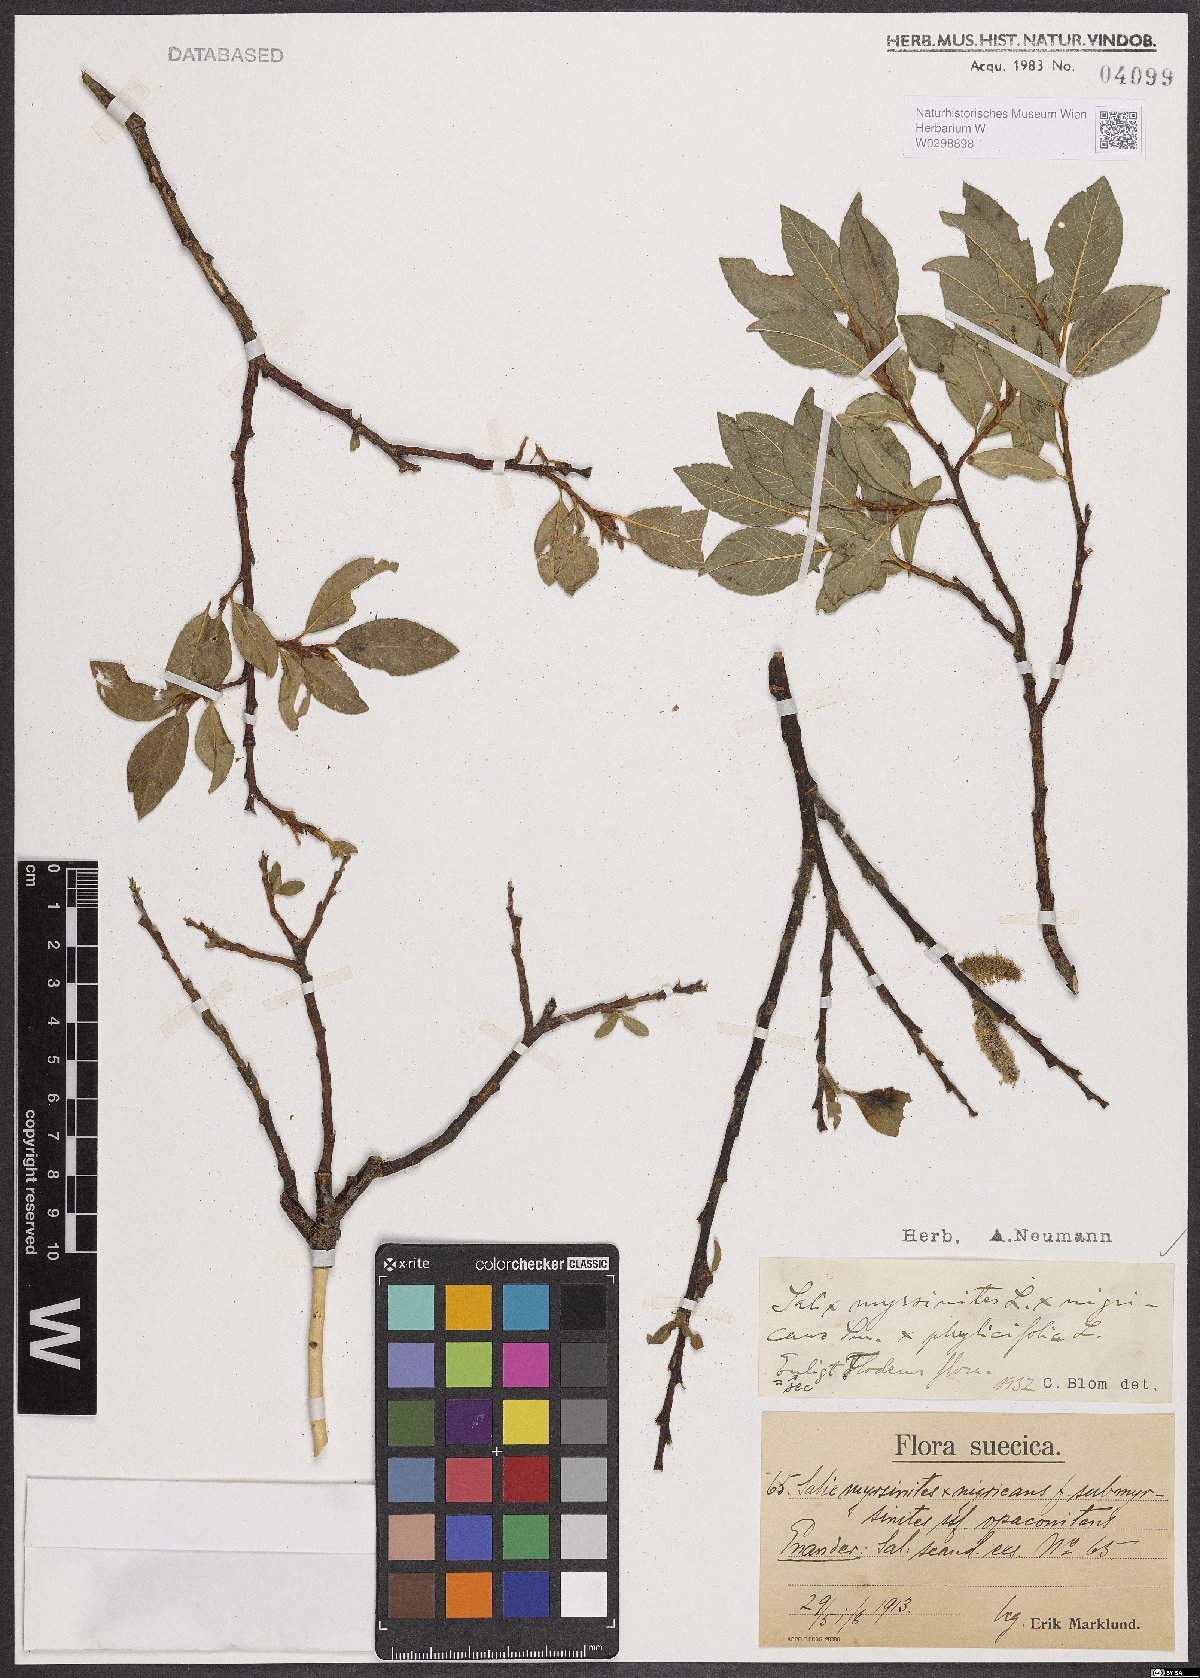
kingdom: Plantae
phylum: Tracheophyta
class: Magnoliopsida
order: Malpighiales
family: Salicaceae
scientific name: Salicaceae
